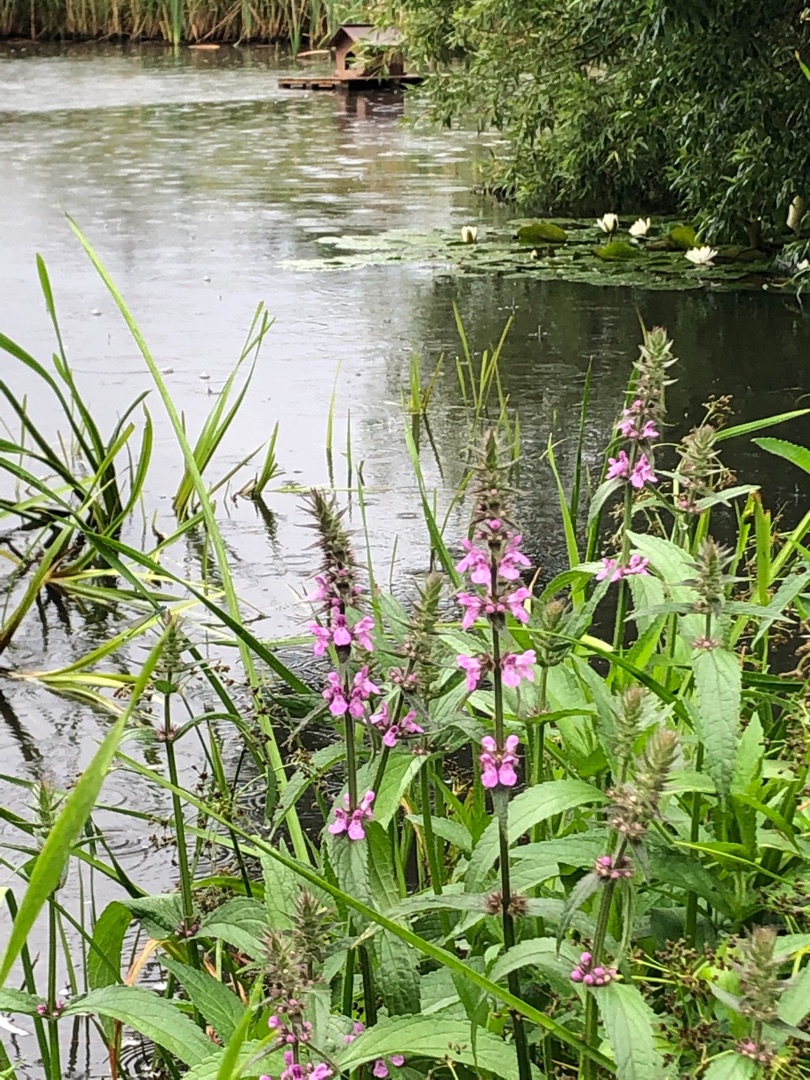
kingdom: Plantae
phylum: Tracheophyta
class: Magnoliopsida
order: Lamiales
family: Lamiaceae
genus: Stachys
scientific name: Stachys palustris
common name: Kær-galtetand
